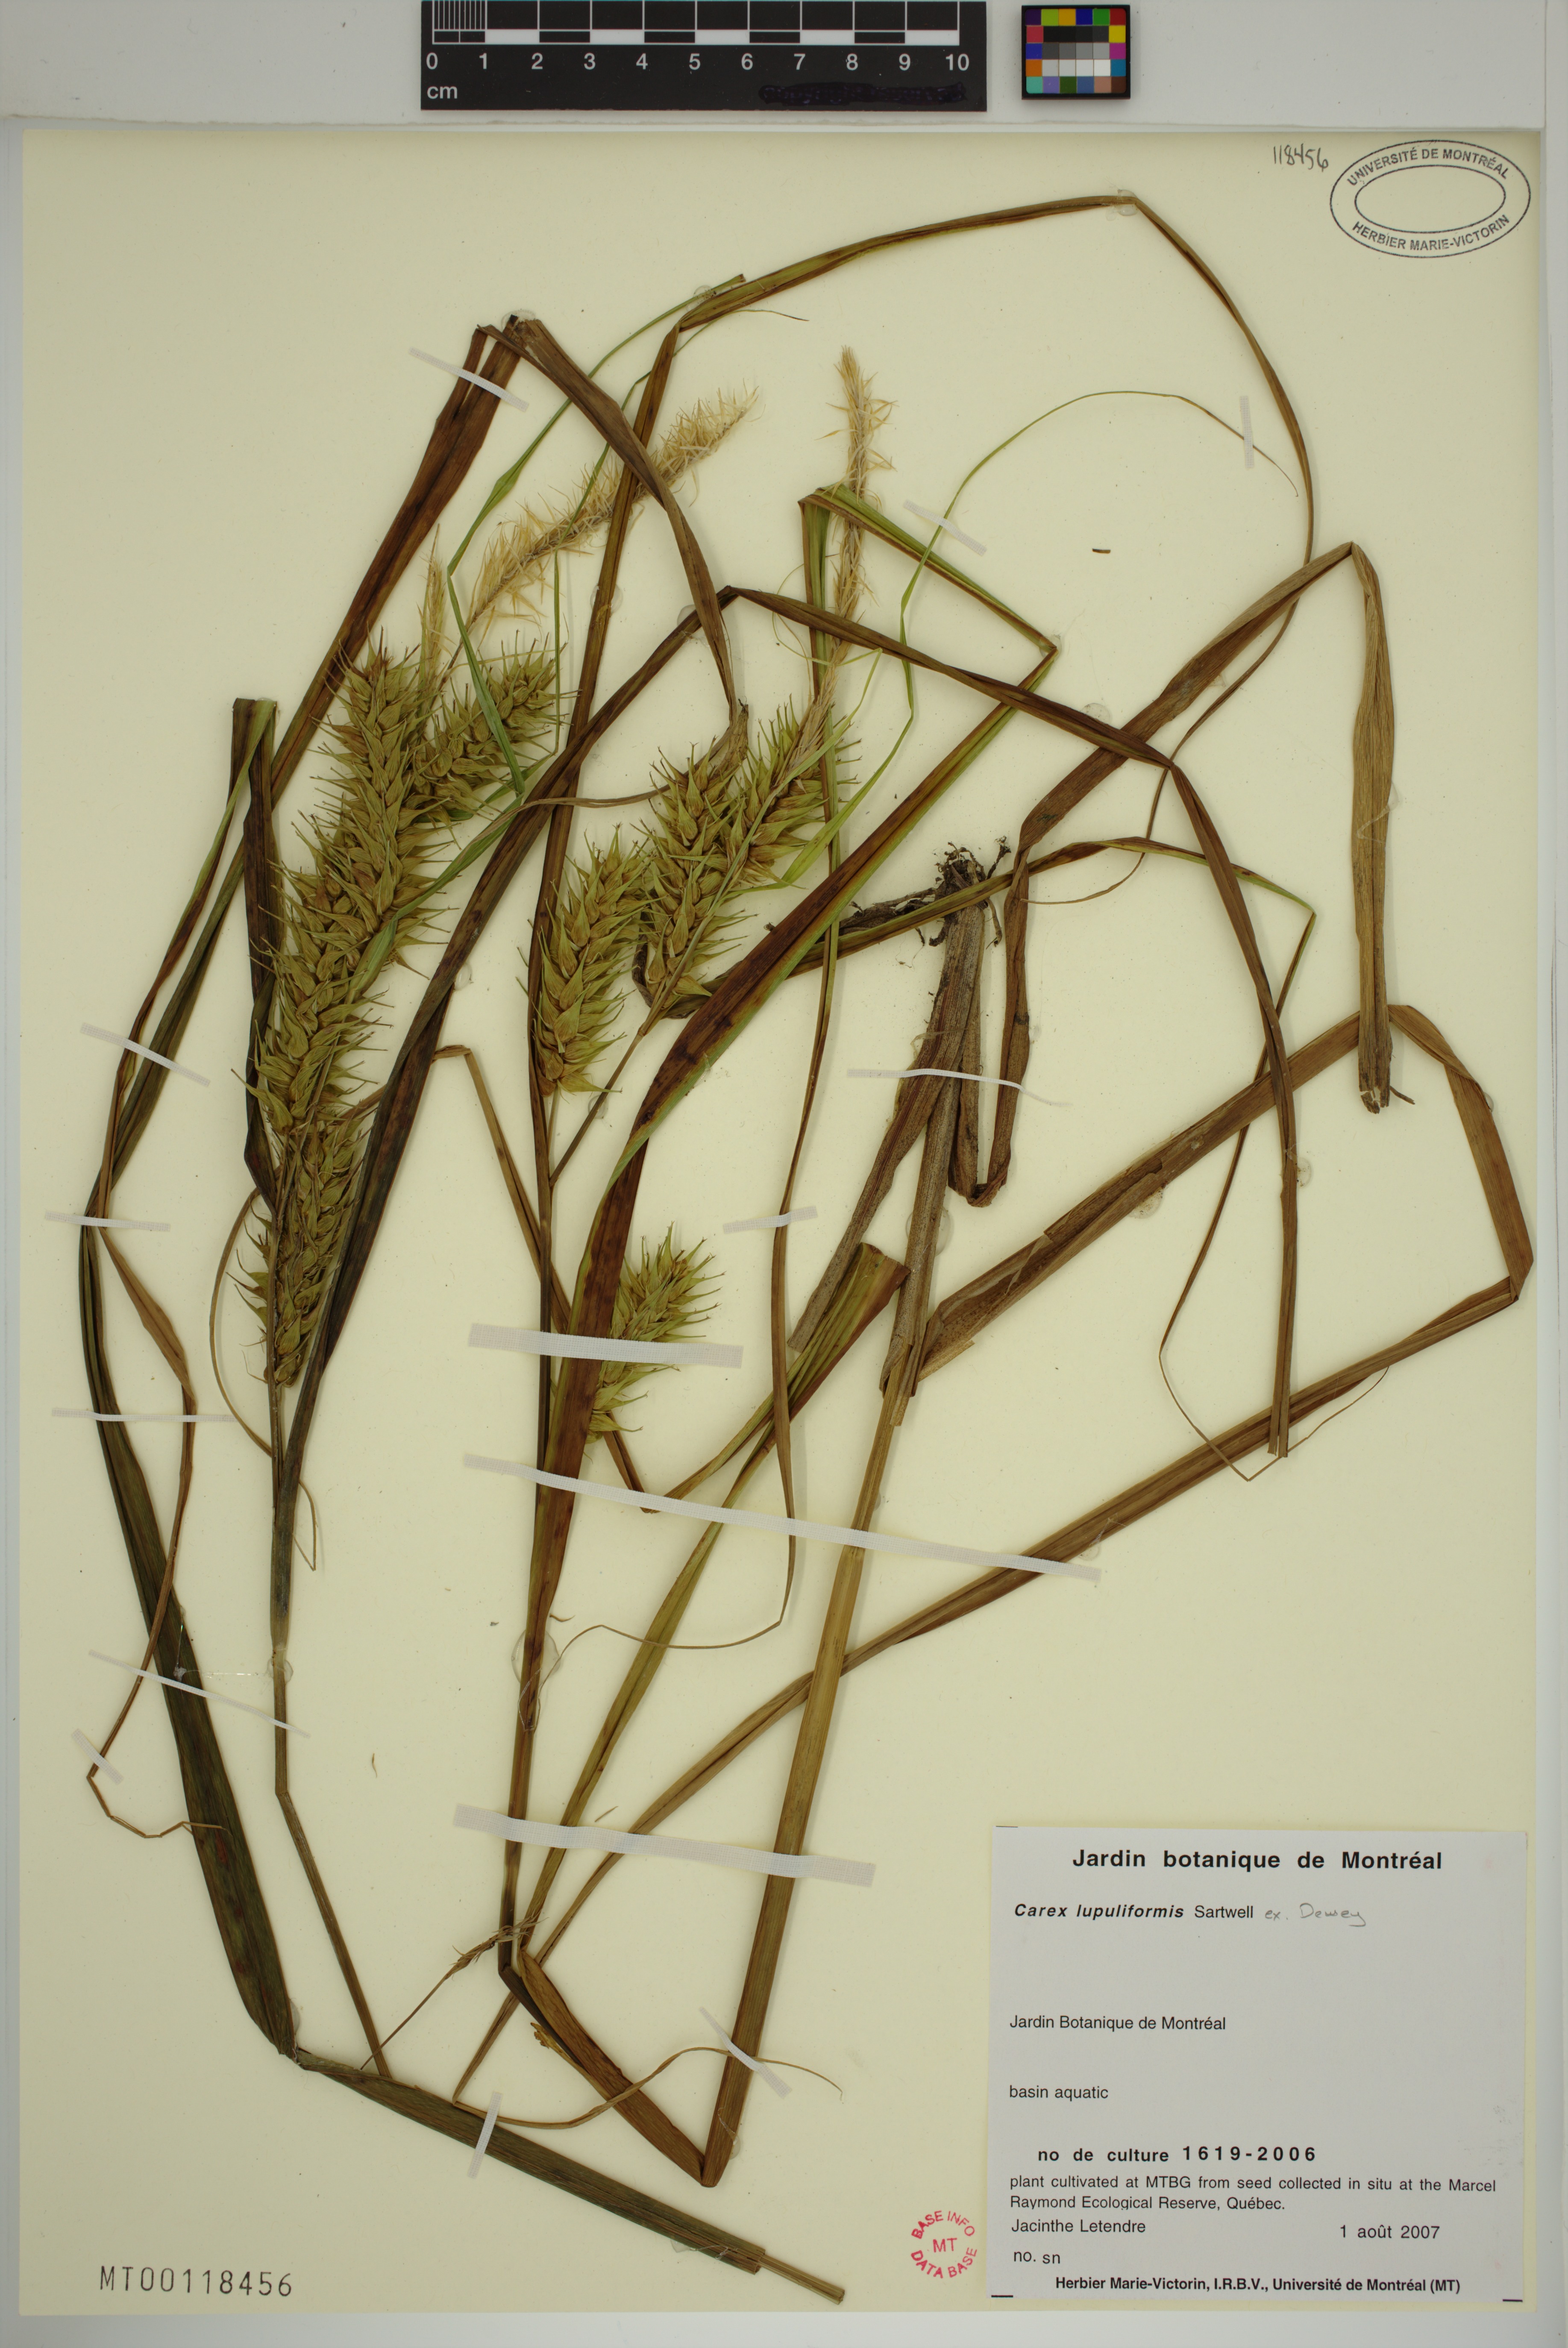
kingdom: Plantae
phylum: Tracheophyta
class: Liliopsida
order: Poales
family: Cyperaceae
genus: Carex
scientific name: Carex lupuliformis
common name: False hop sedge
